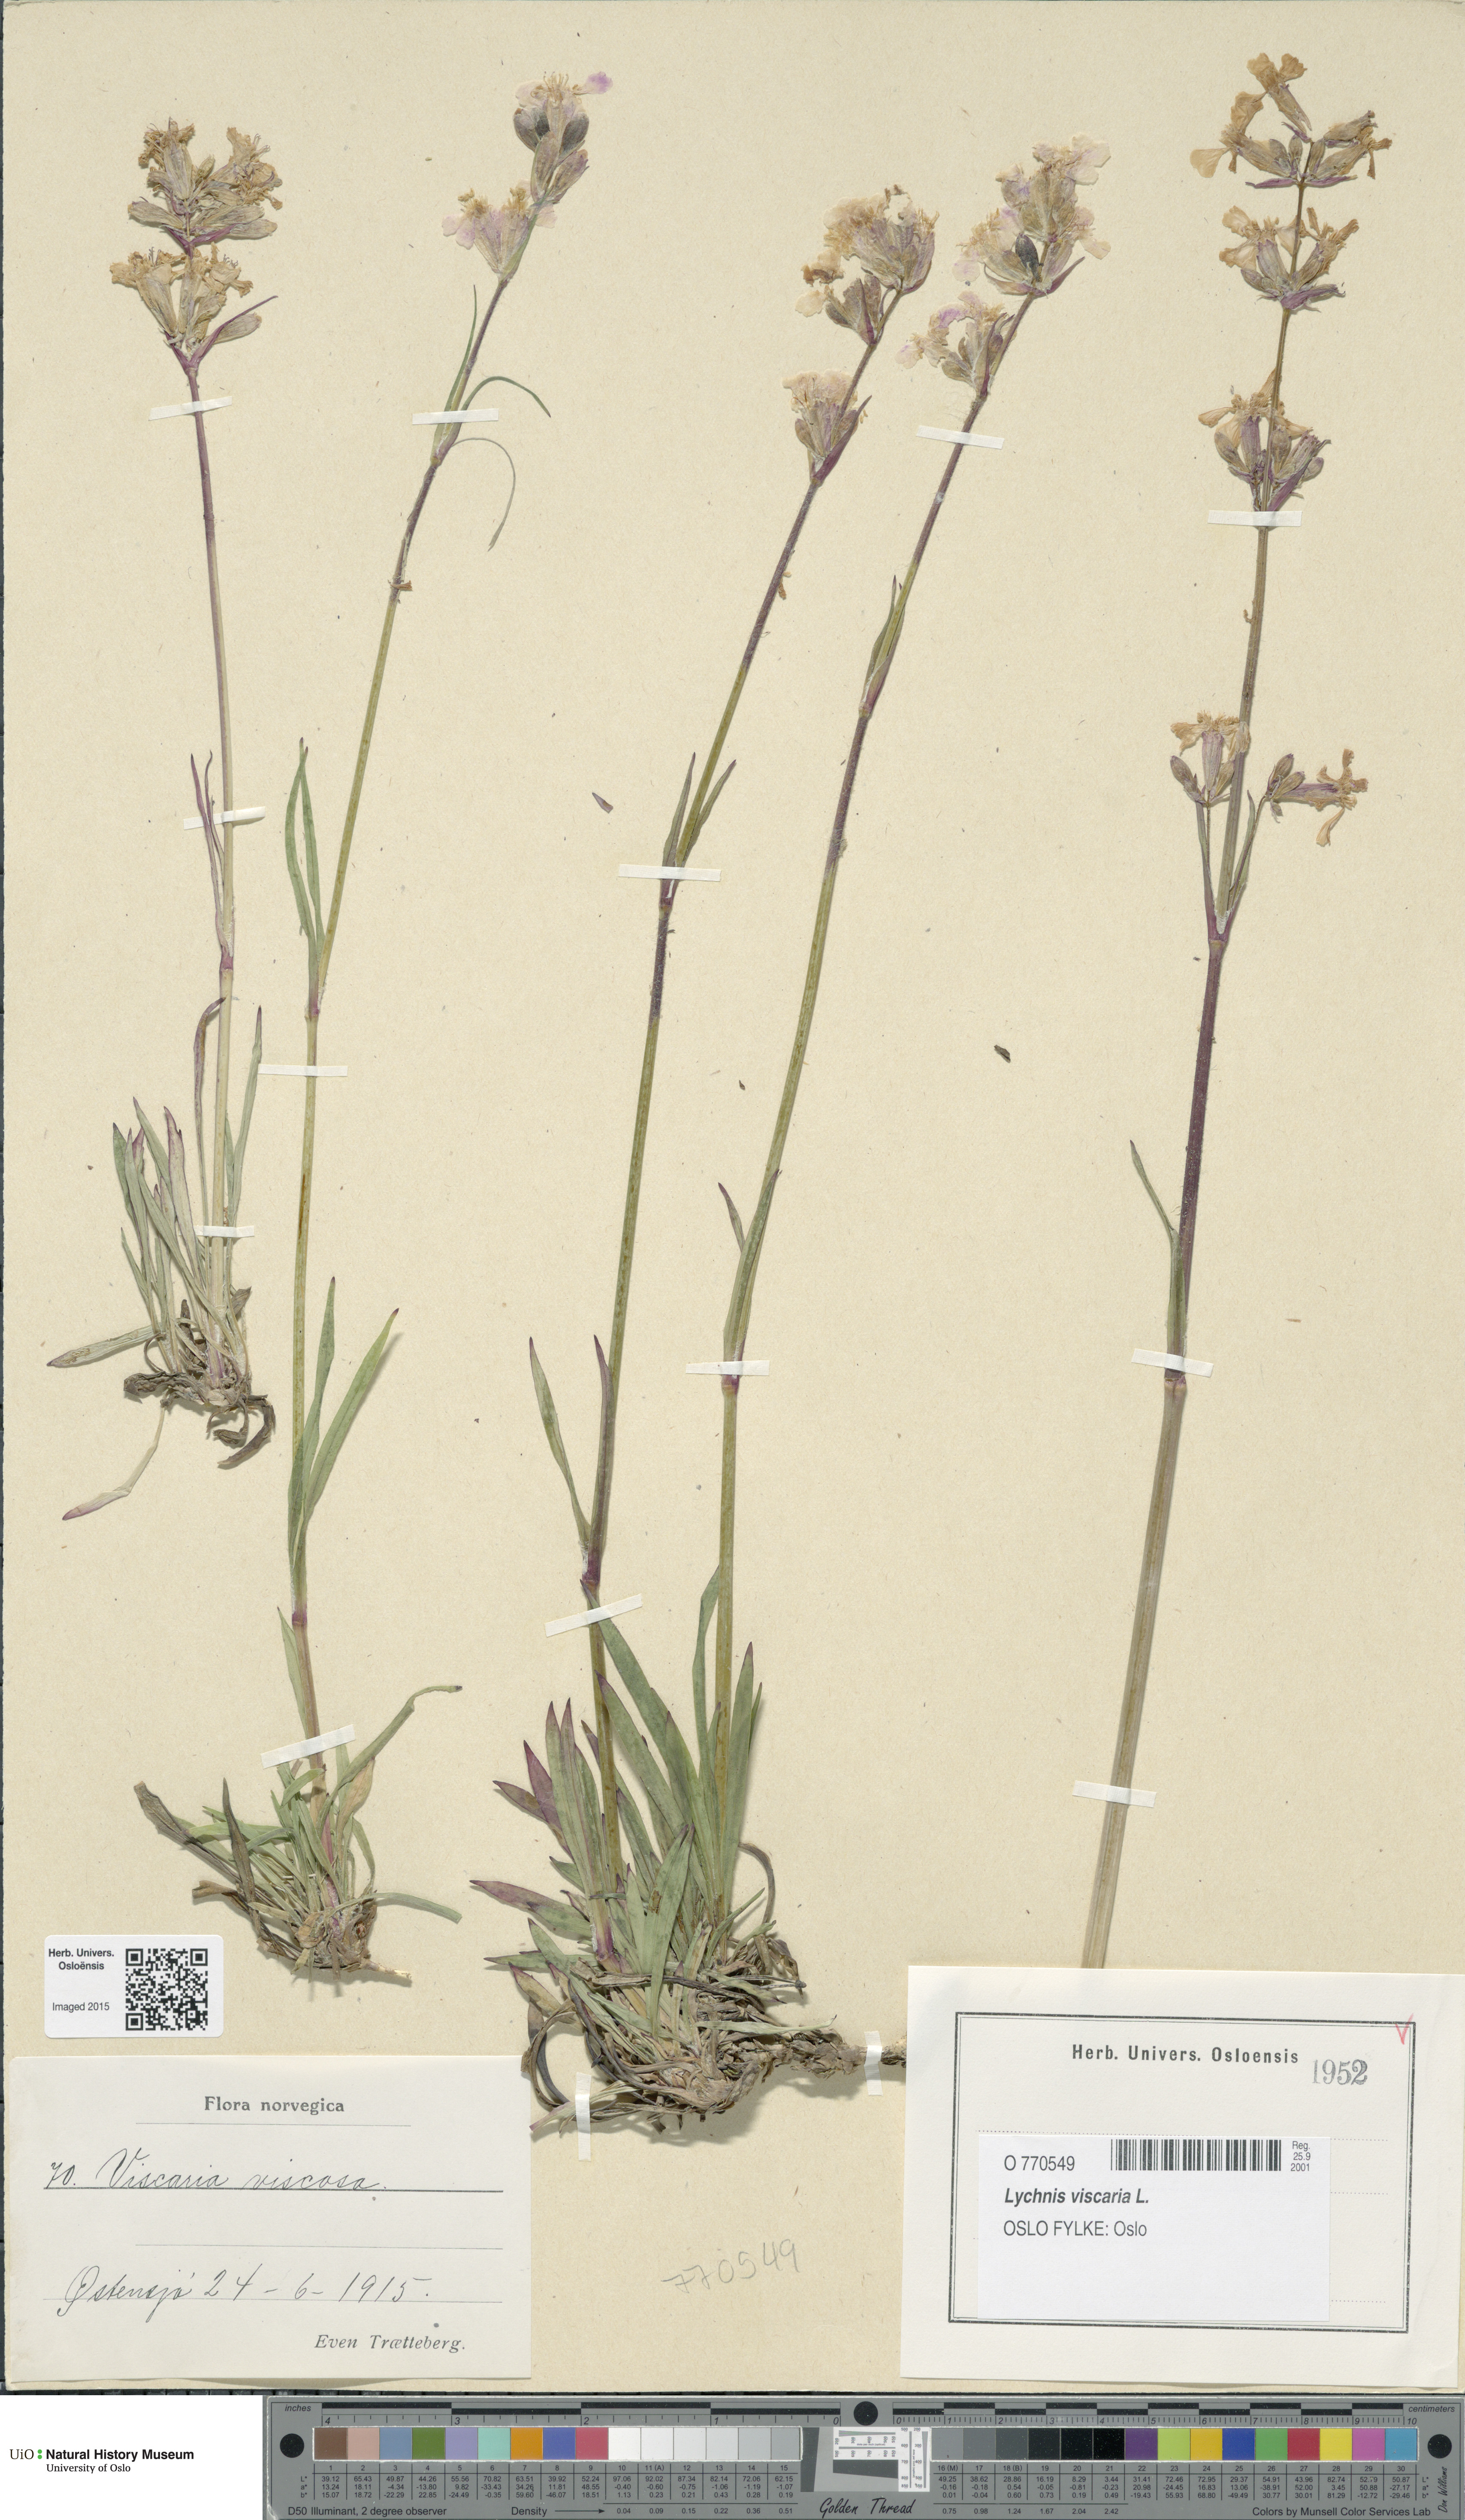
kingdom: Plantae
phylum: Tracheophyta
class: Magnoliopsida
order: Caryophyllales
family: Caryophyllaceae
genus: Viscaria
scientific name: Viscaria vulgaris
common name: Clammy campion
